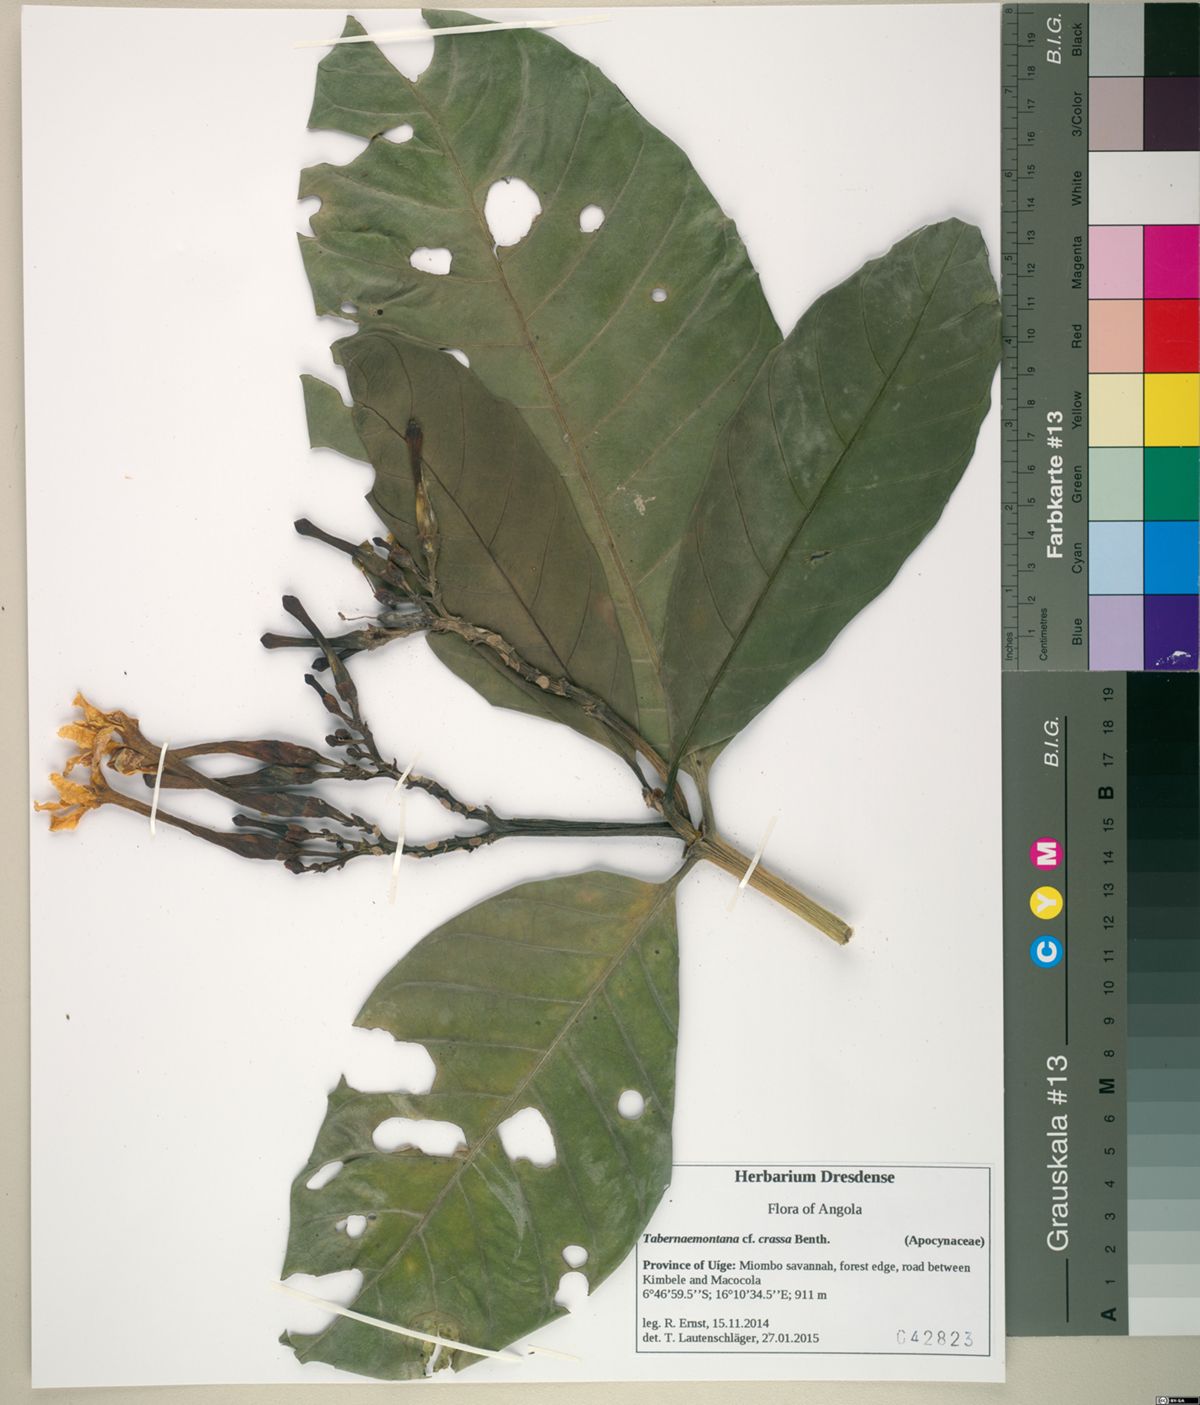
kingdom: Plantae
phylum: Tracheophyta
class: Magnoliopsida
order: Gentianales
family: Apocynaceae
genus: Tabernaemontana
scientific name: Tabernaemontana crassa
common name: Adam's-apple-flower
